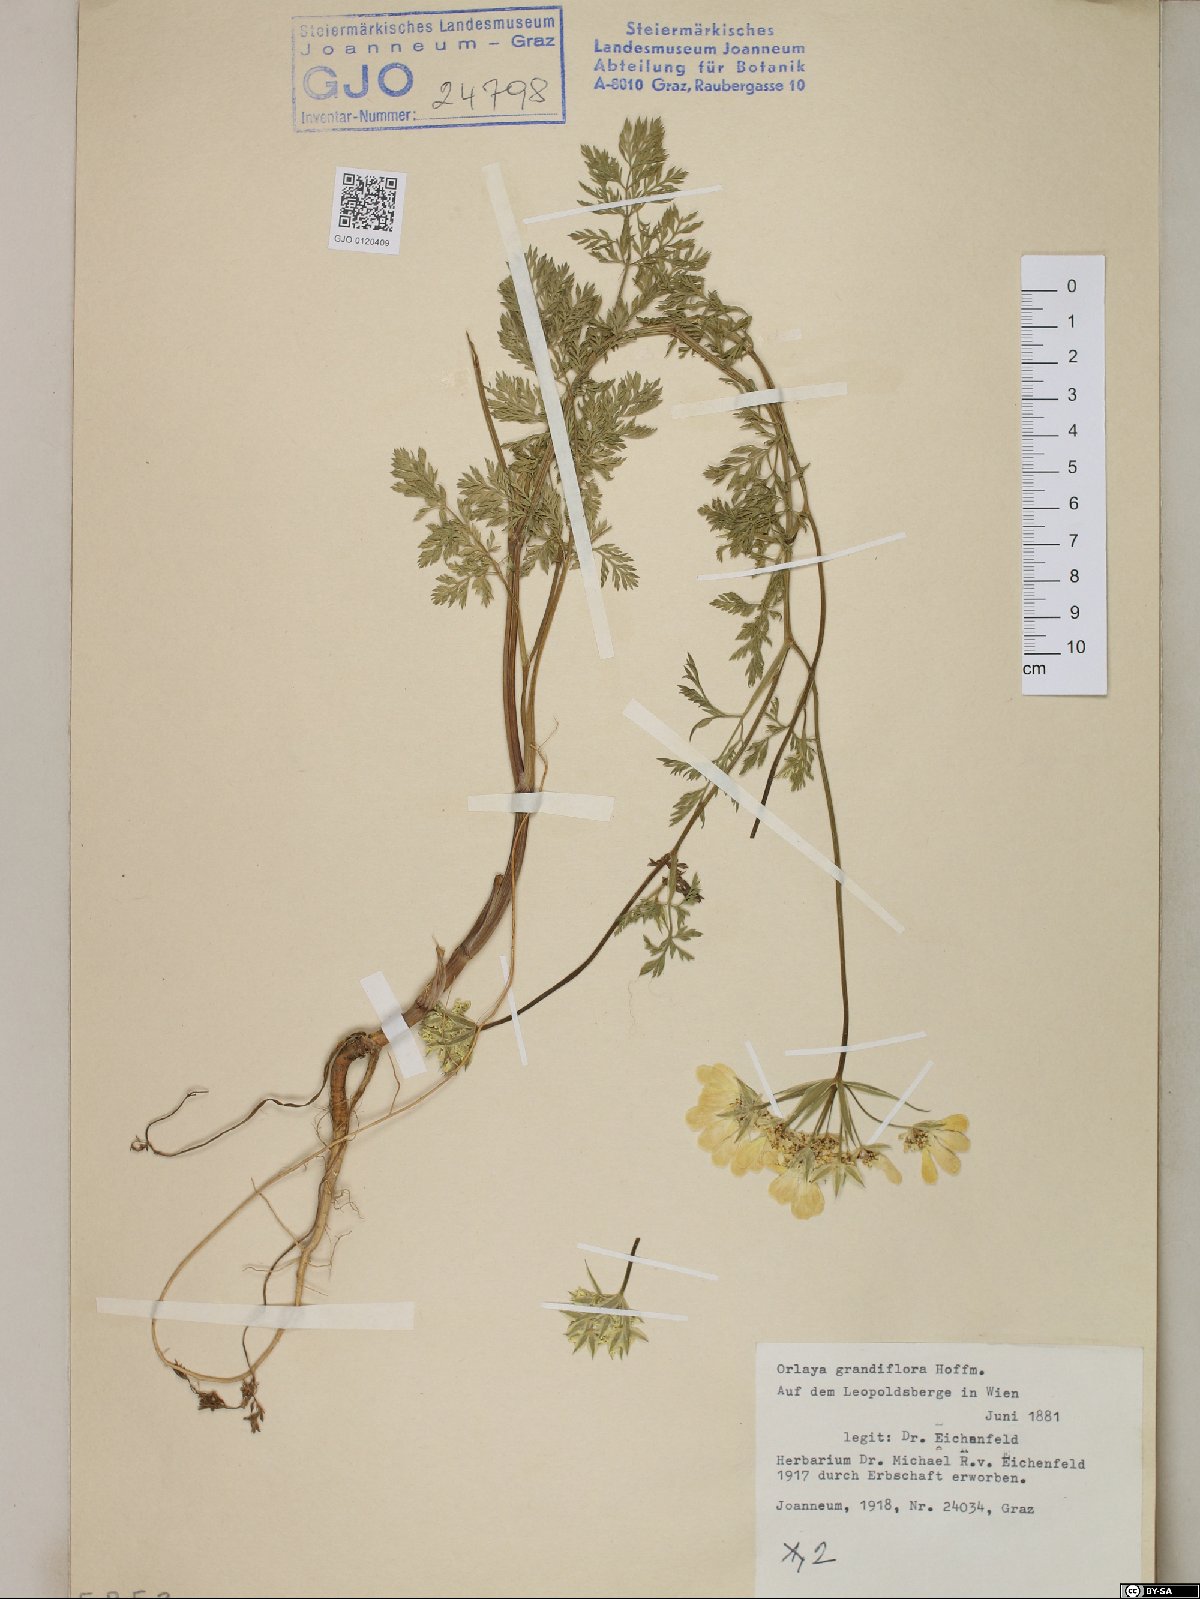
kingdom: Plantae
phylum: Tracheophyta
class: Magnoliopsida
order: Apiales
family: Apiaceae
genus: Orlaya
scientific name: Orlaya grandiflora
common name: White lace flower
